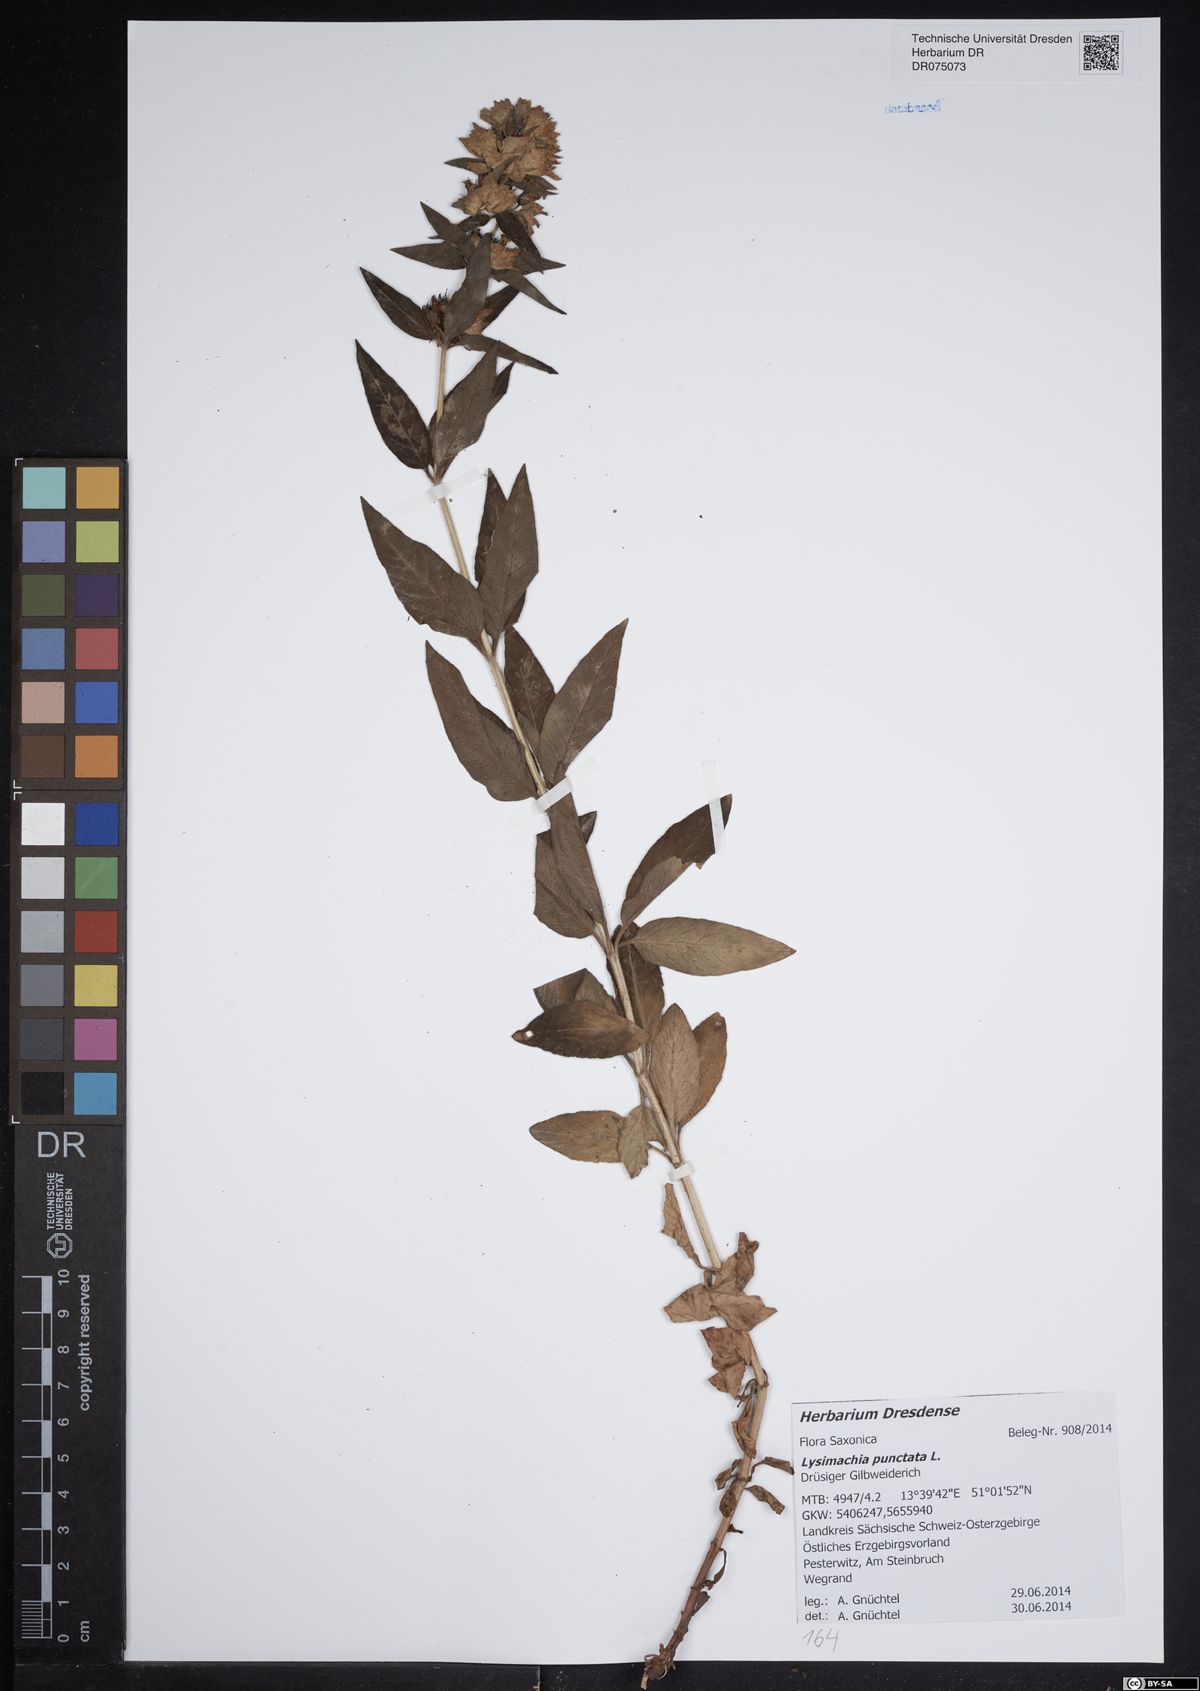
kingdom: Plantae
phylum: Tracheophyta
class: Magnoliopsida
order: Ericales
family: Primulaceae
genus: Lysimachia
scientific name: Lysimachia punctata
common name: Dotted loosestrife
